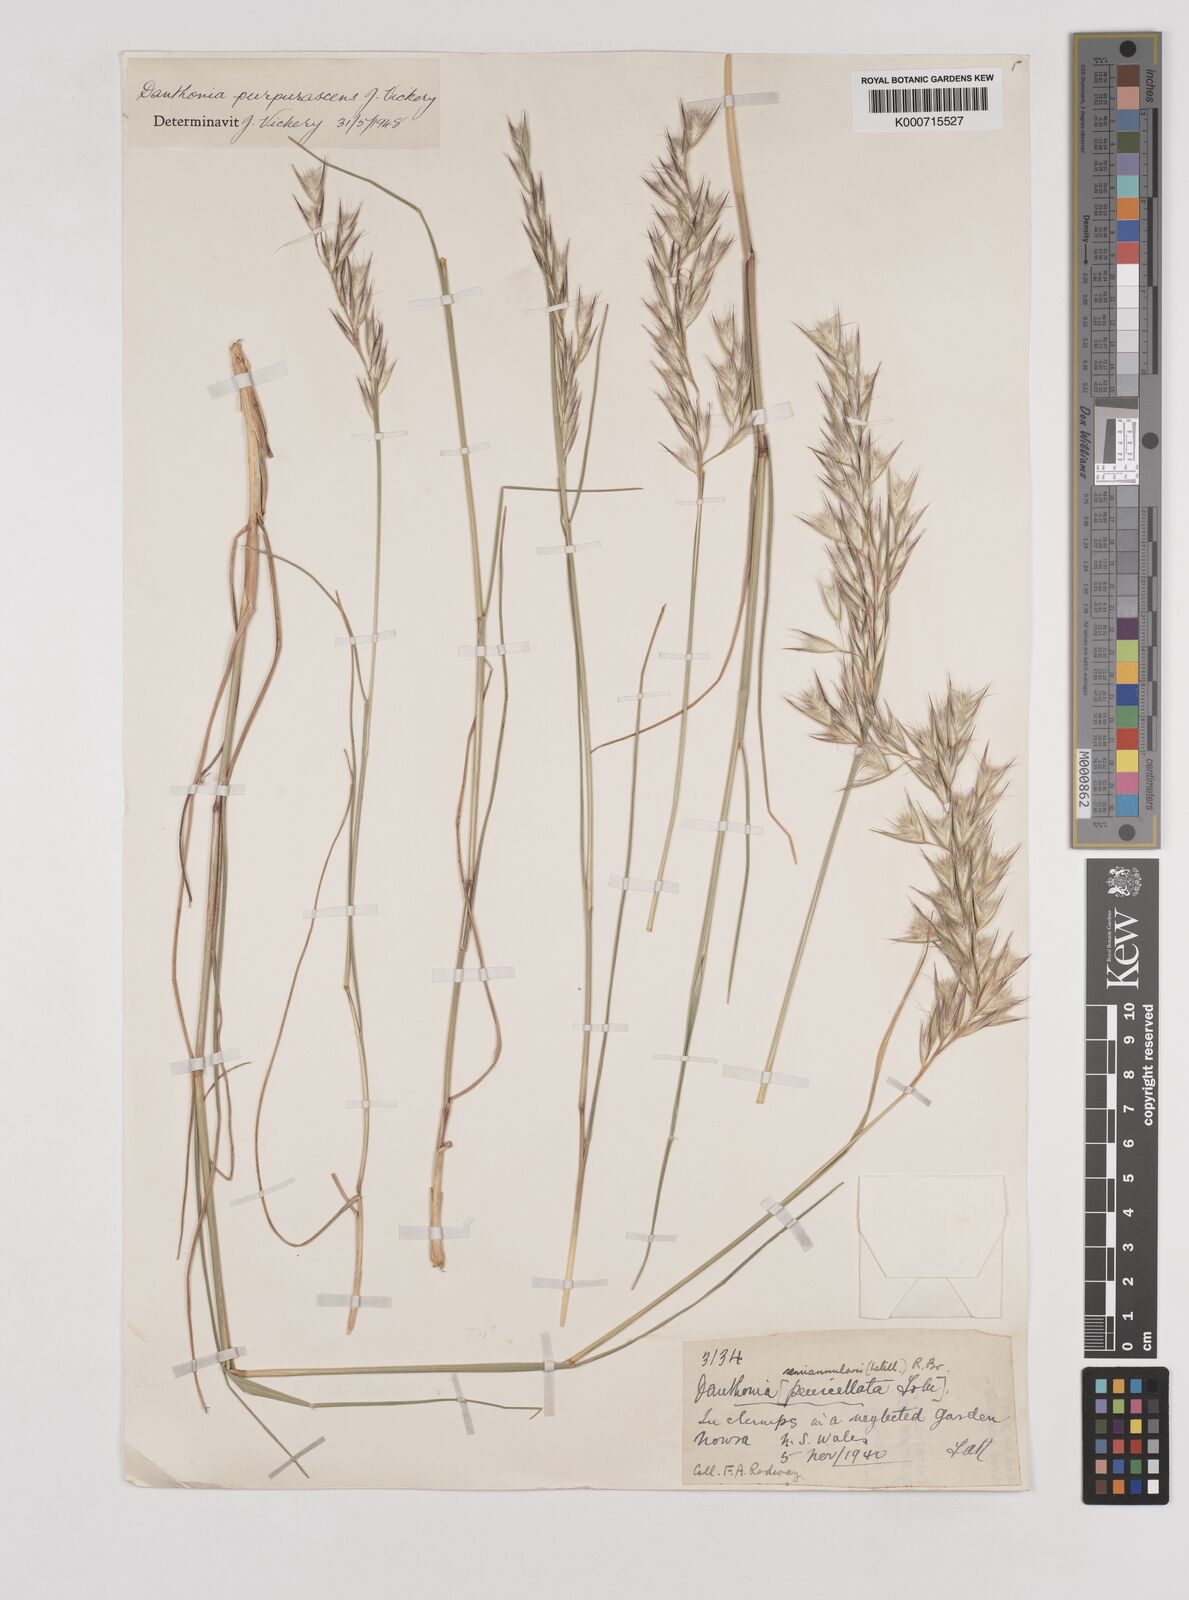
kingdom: Plantae
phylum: Tracheophyta
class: Liliopsida
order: Poales
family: Poaceae
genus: Rytidosperma
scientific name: Rytidosperma tenuius
